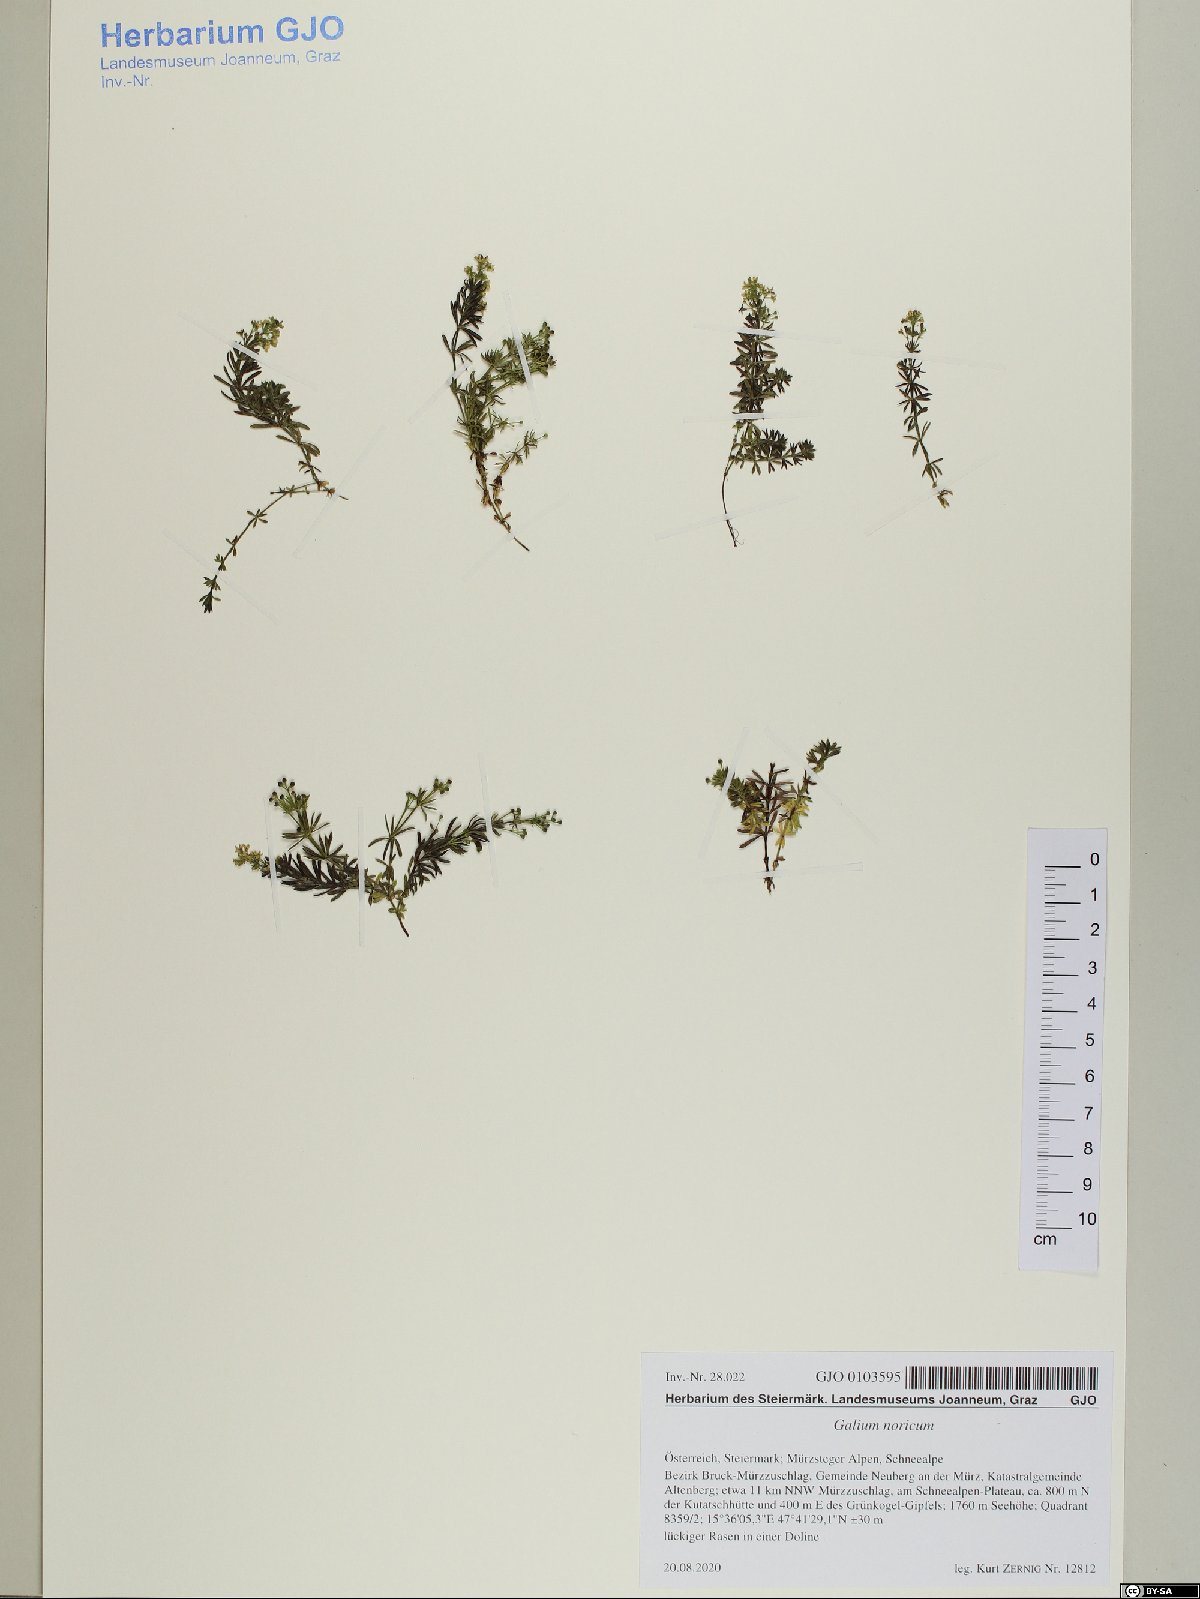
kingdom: Plantae
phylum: Tracheophyta
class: Magnoliopsida
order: Gentianales
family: Rubiaceae
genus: Galium
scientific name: Galium noricum
